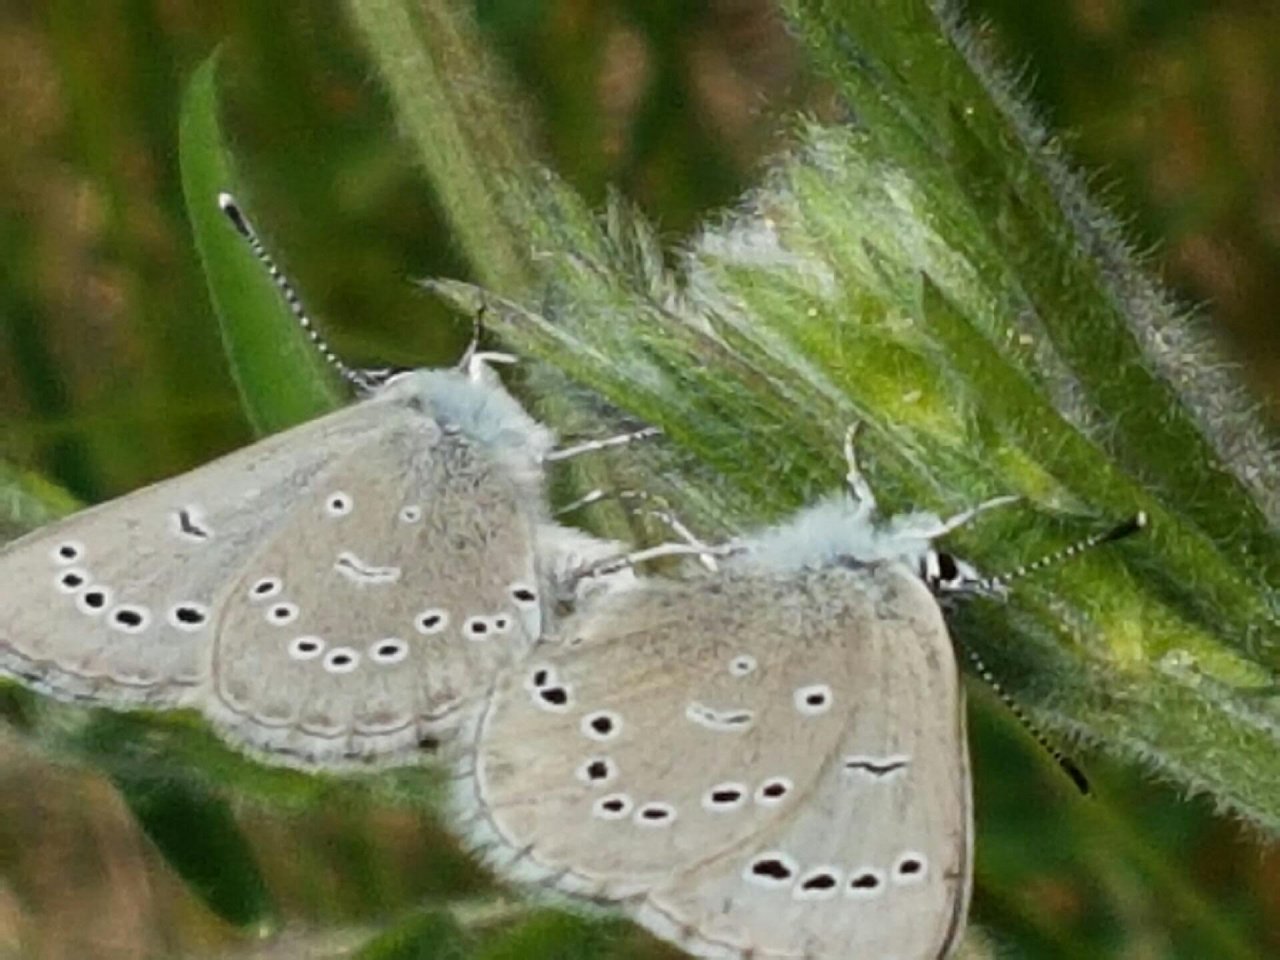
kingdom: Animalia
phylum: Arthropoda
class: Insecta
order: Lepidoptera
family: Lycaenidae
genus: Glaucopsyche
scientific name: Glaucopsyche lygdamus
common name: Silvery Blue
